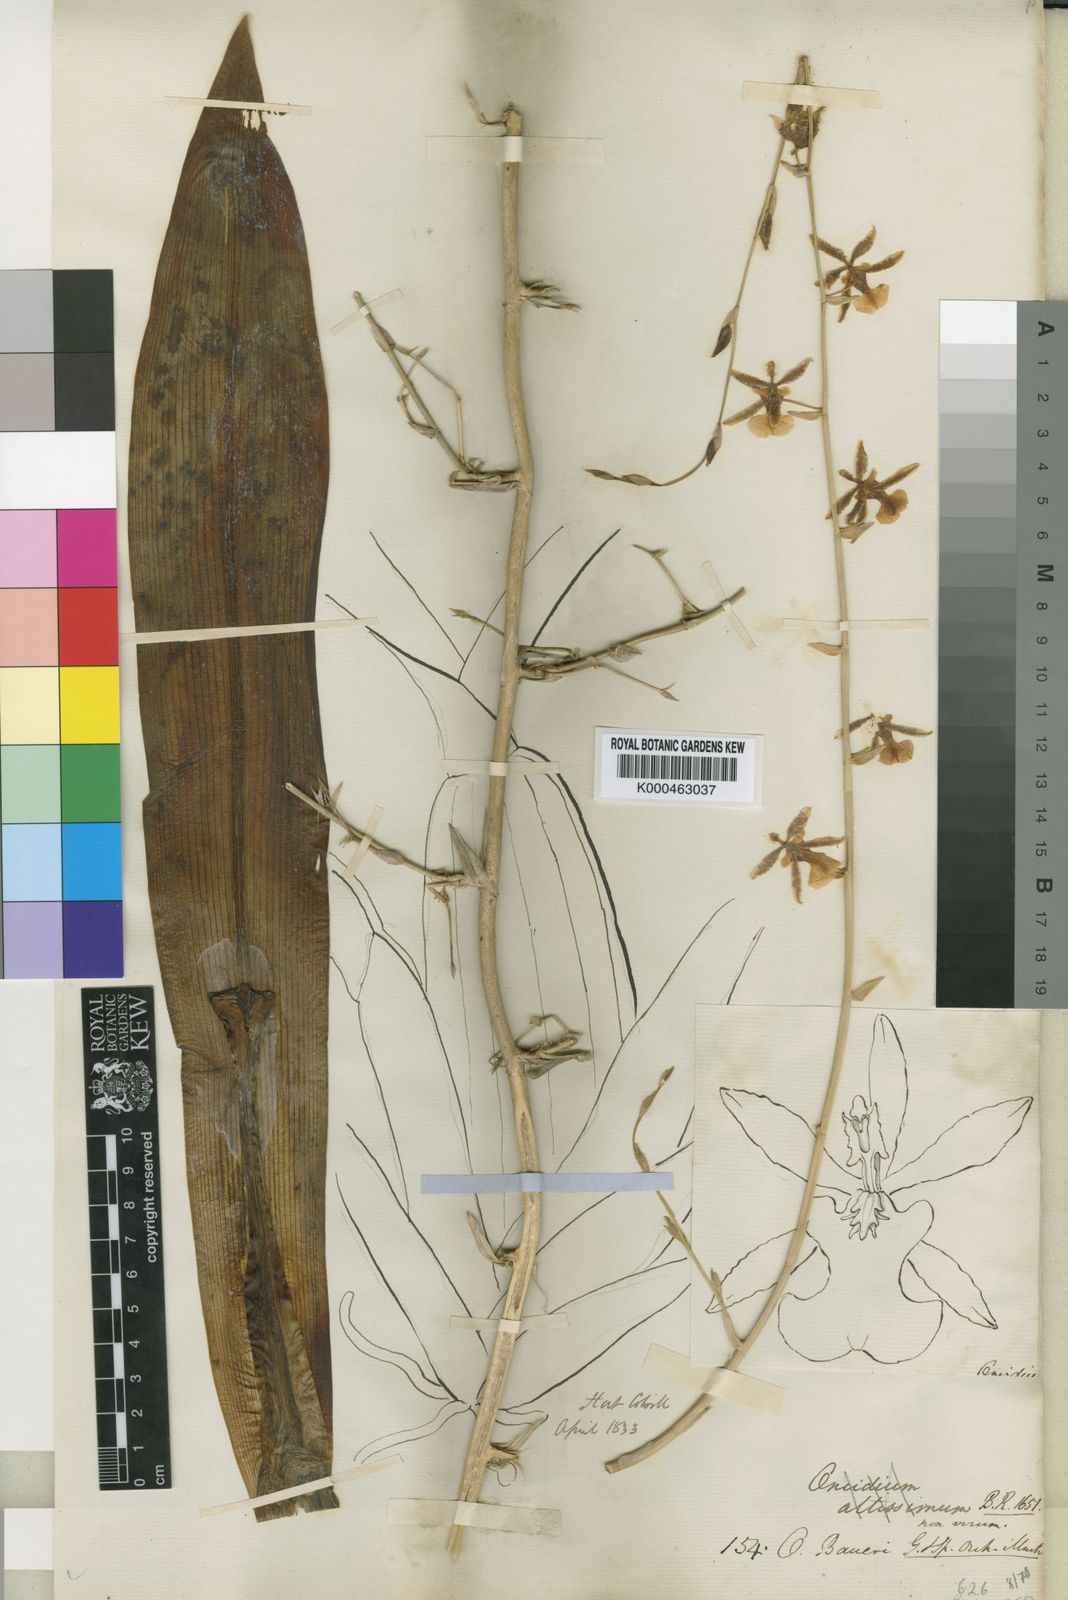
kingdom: Plantae
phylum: Tracheophyta
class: Liliopsida
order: Asparagales
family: Orchidaceae
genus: Oncidium
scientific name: Oncidium
